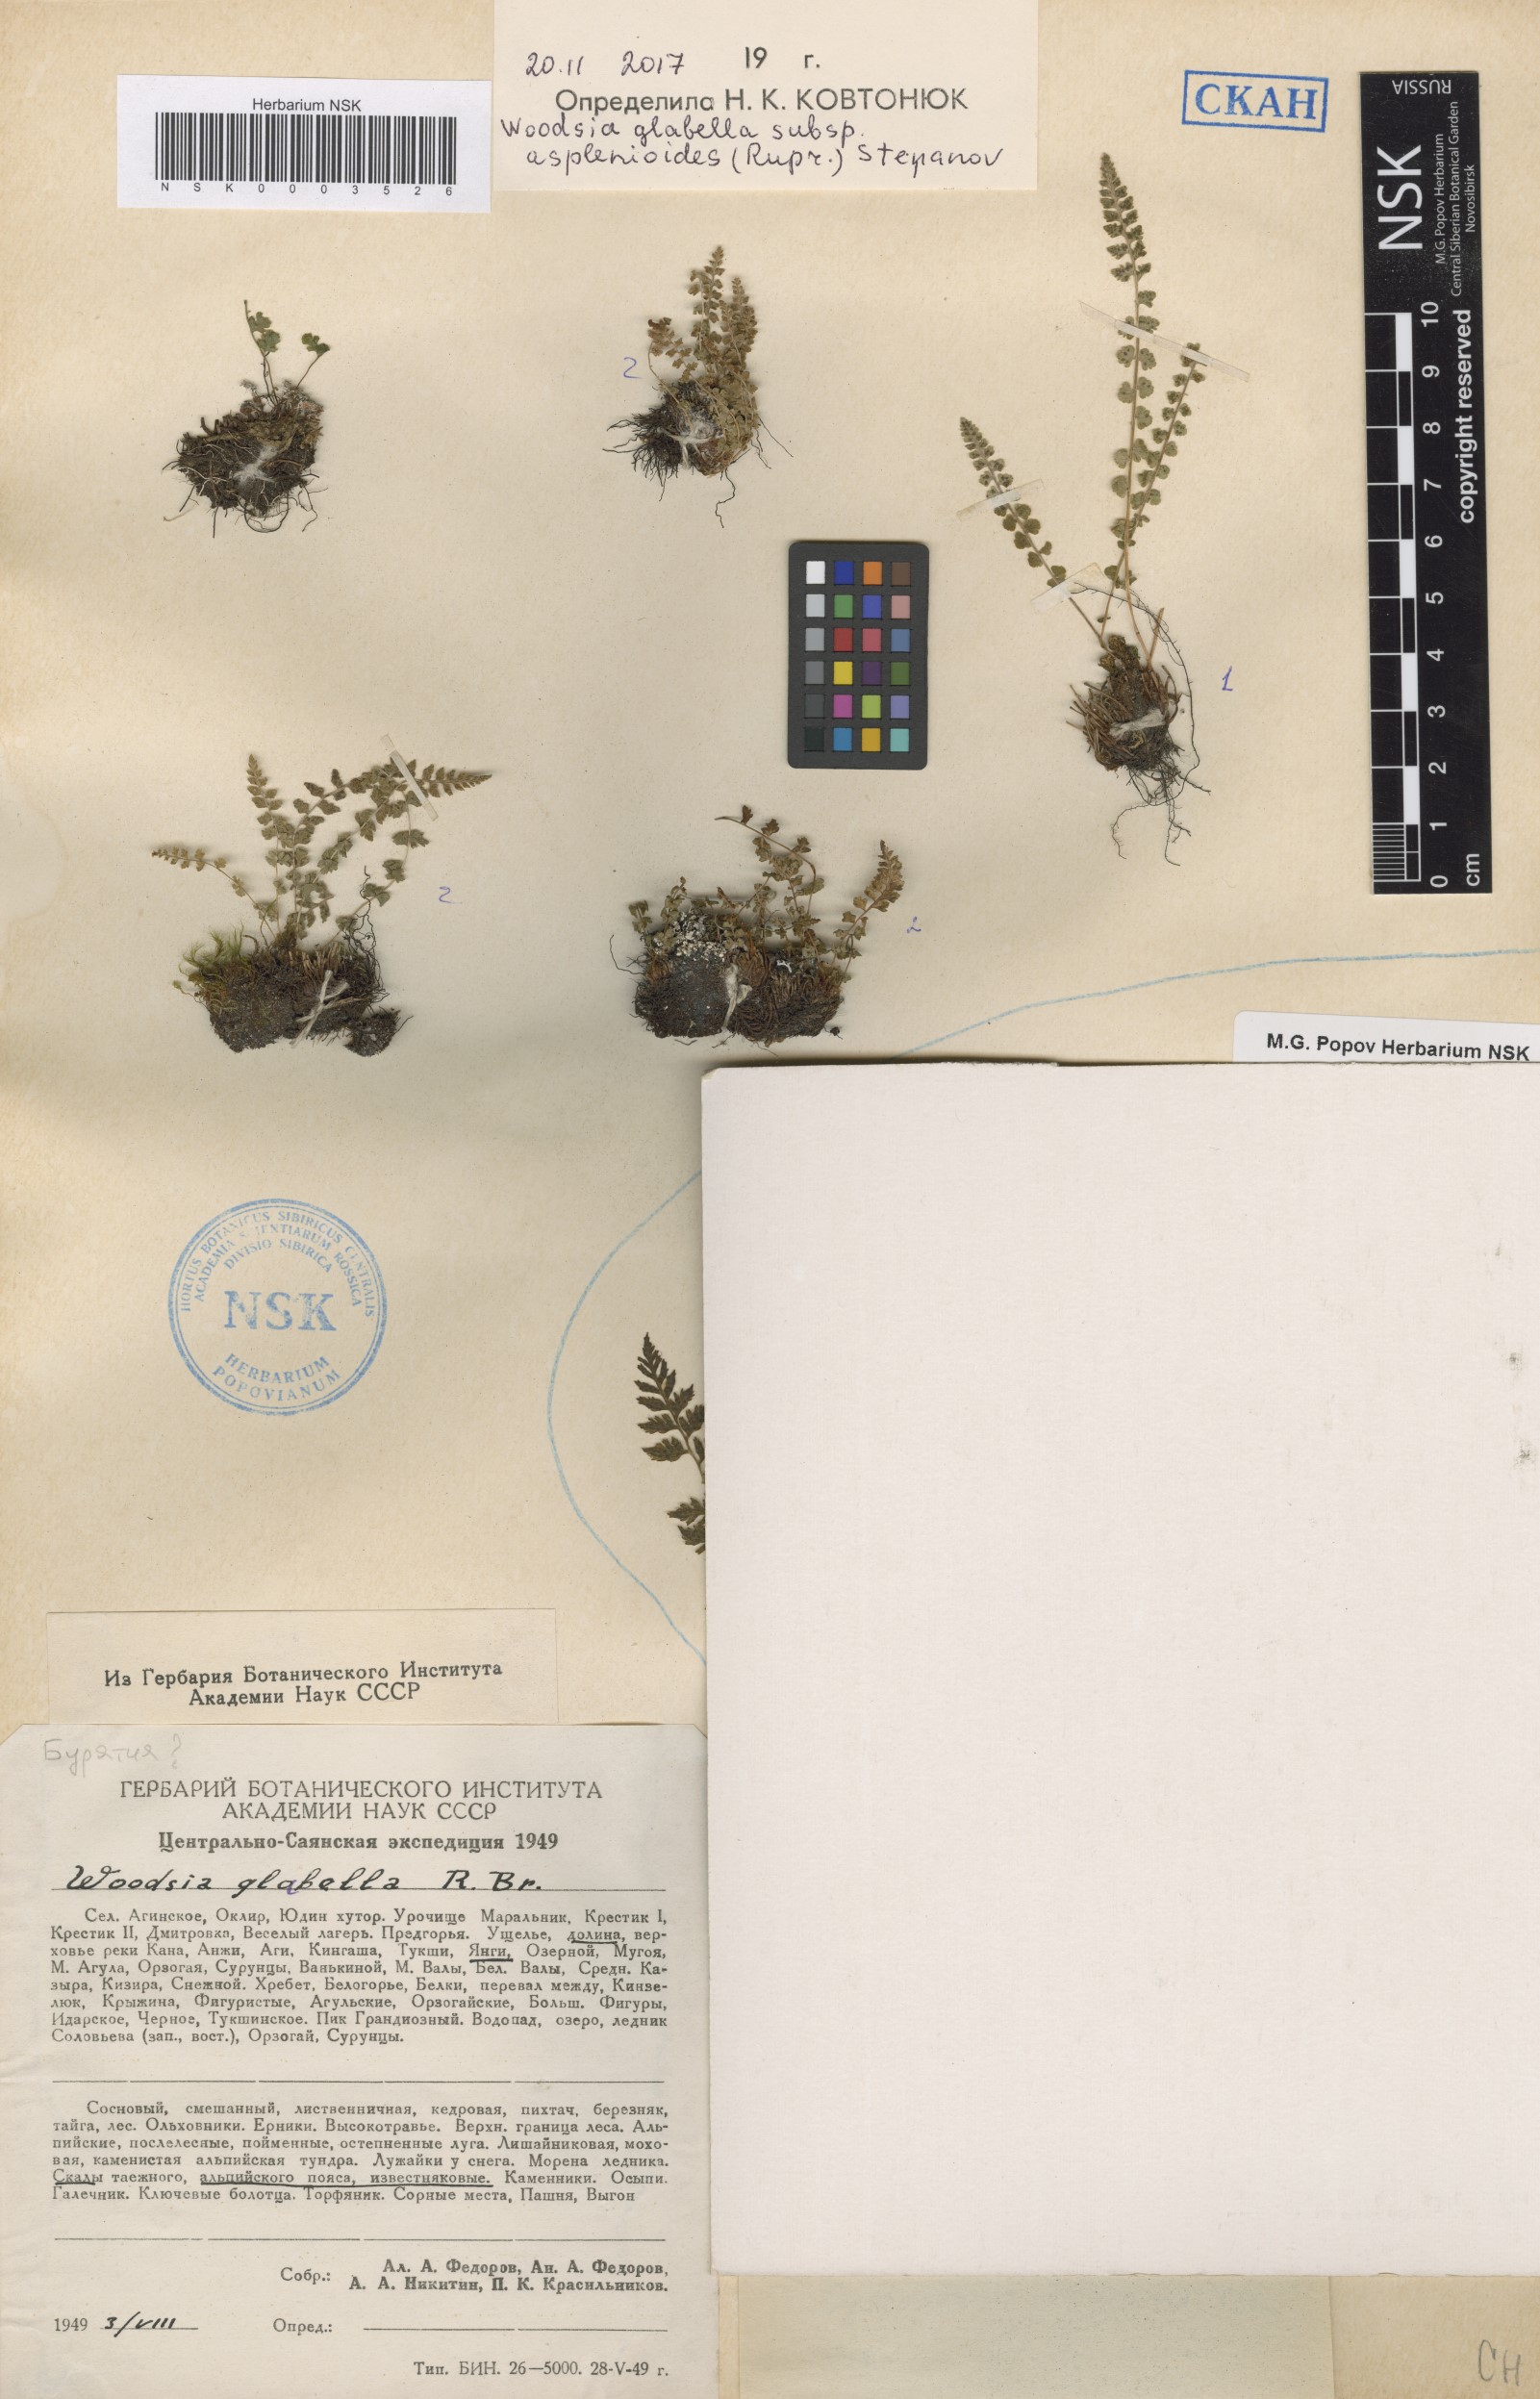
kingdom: Plantae
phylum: Tracheophyta
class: Polypodiopsida
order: Polypodiales
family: Woodsiaceae
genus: Woodsia
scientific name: Woodsia glabella
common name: Smooth woodsia
